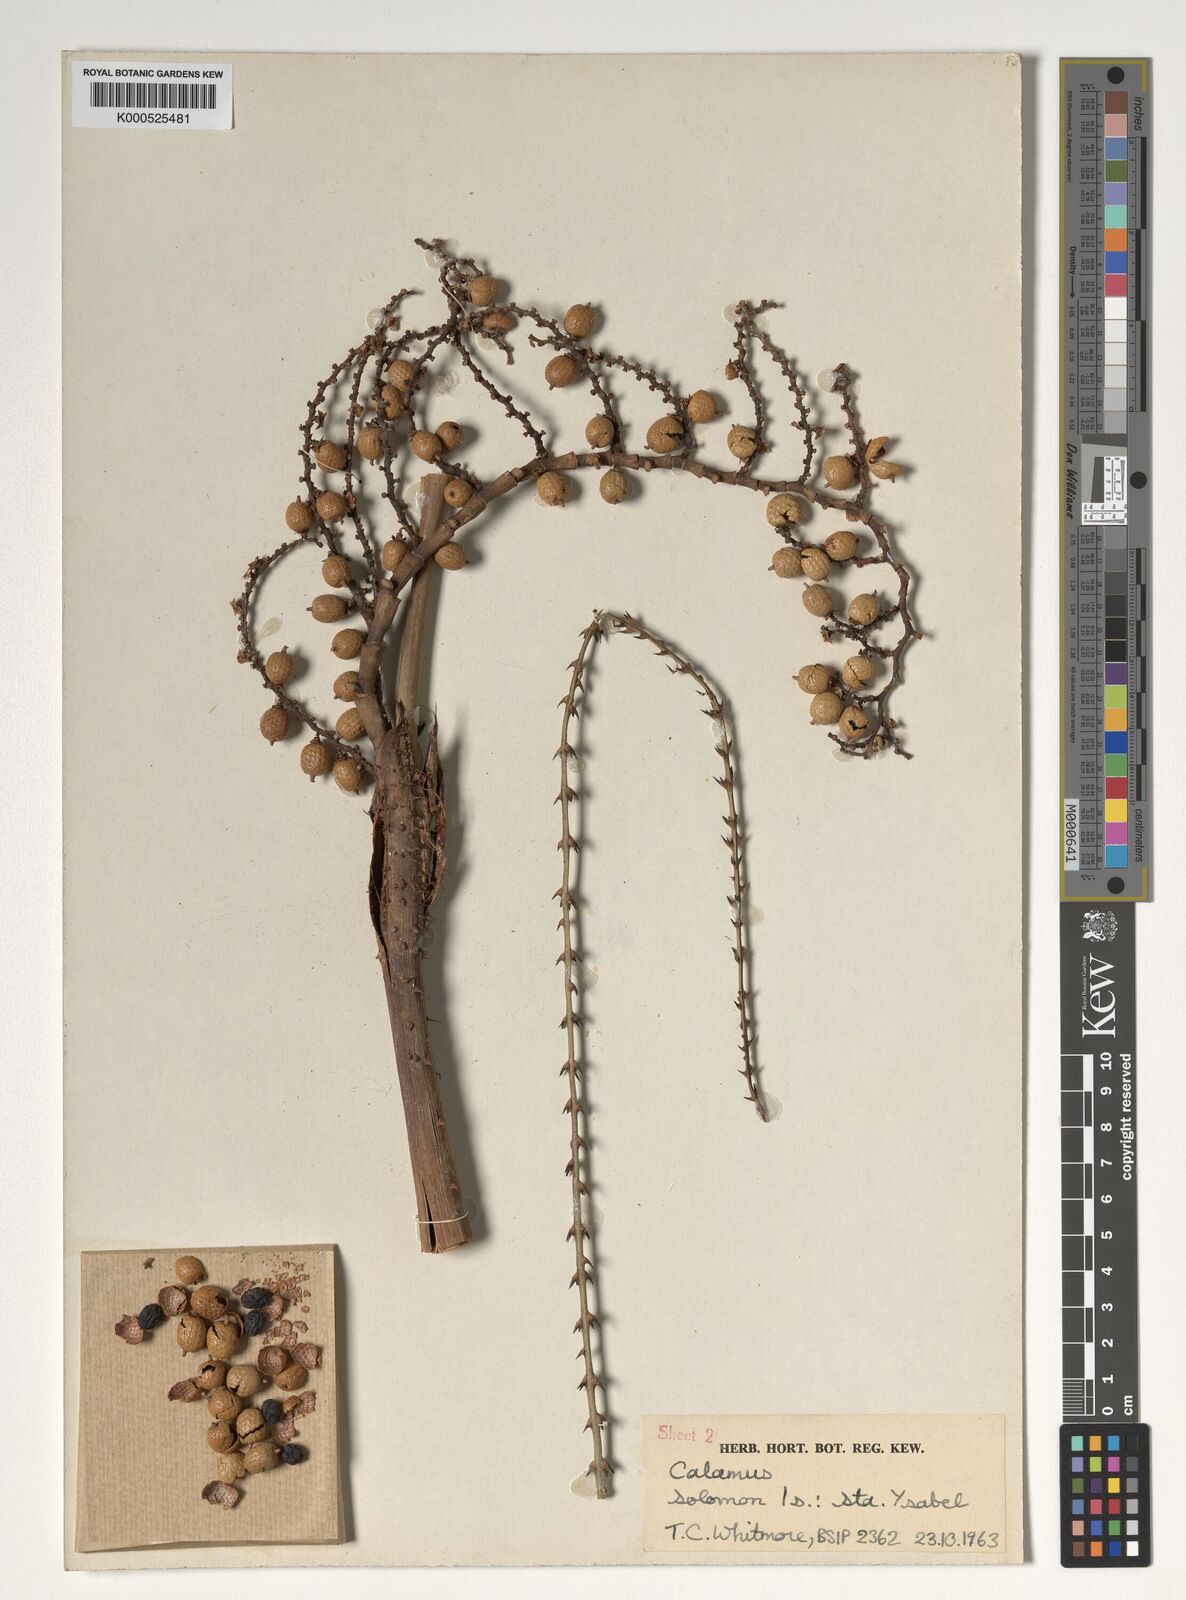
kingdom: Plantae
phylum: Tracheophyta
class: Liliopsida
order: Arecales
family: Arecaceae
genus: Calamus
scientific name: Calamus
